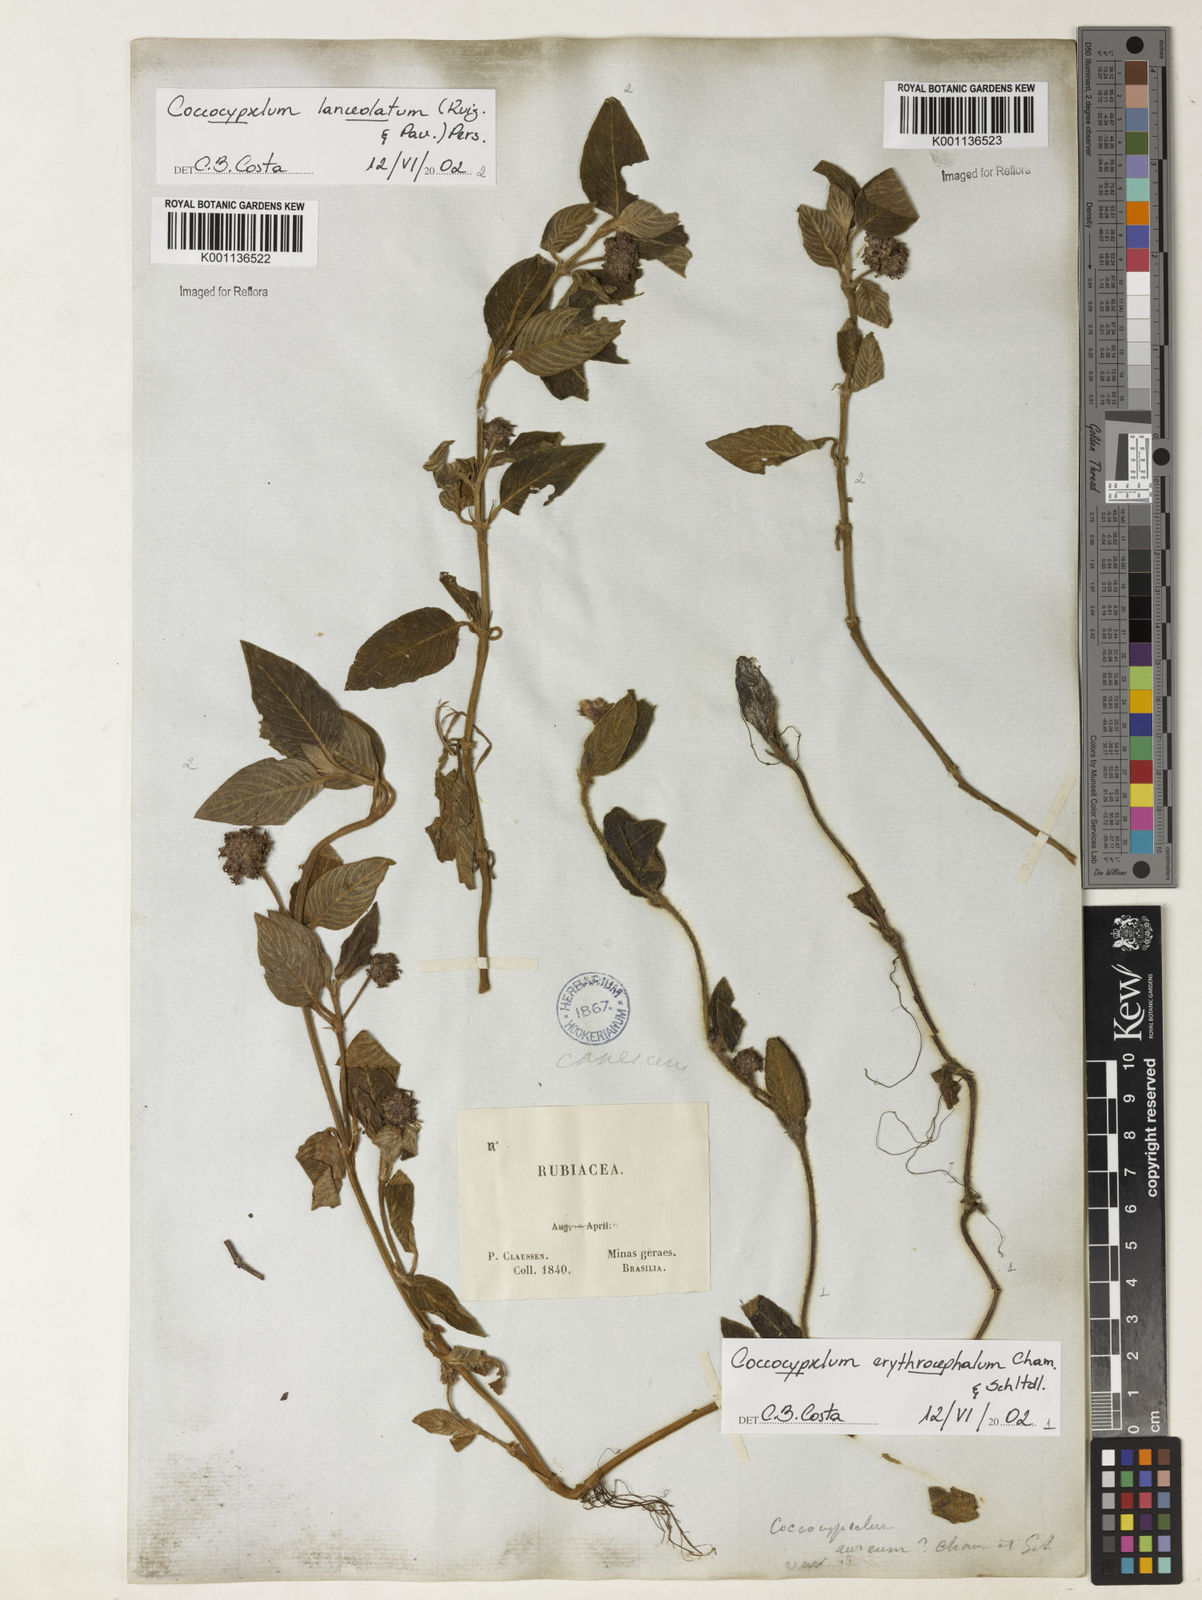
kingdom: Plantae
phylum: Tracheophyta
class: Magnoliopsida
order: Gentianales
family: Rubiaceae
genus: Coccocypselum
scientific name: Coccocypselum erythrocephalum
